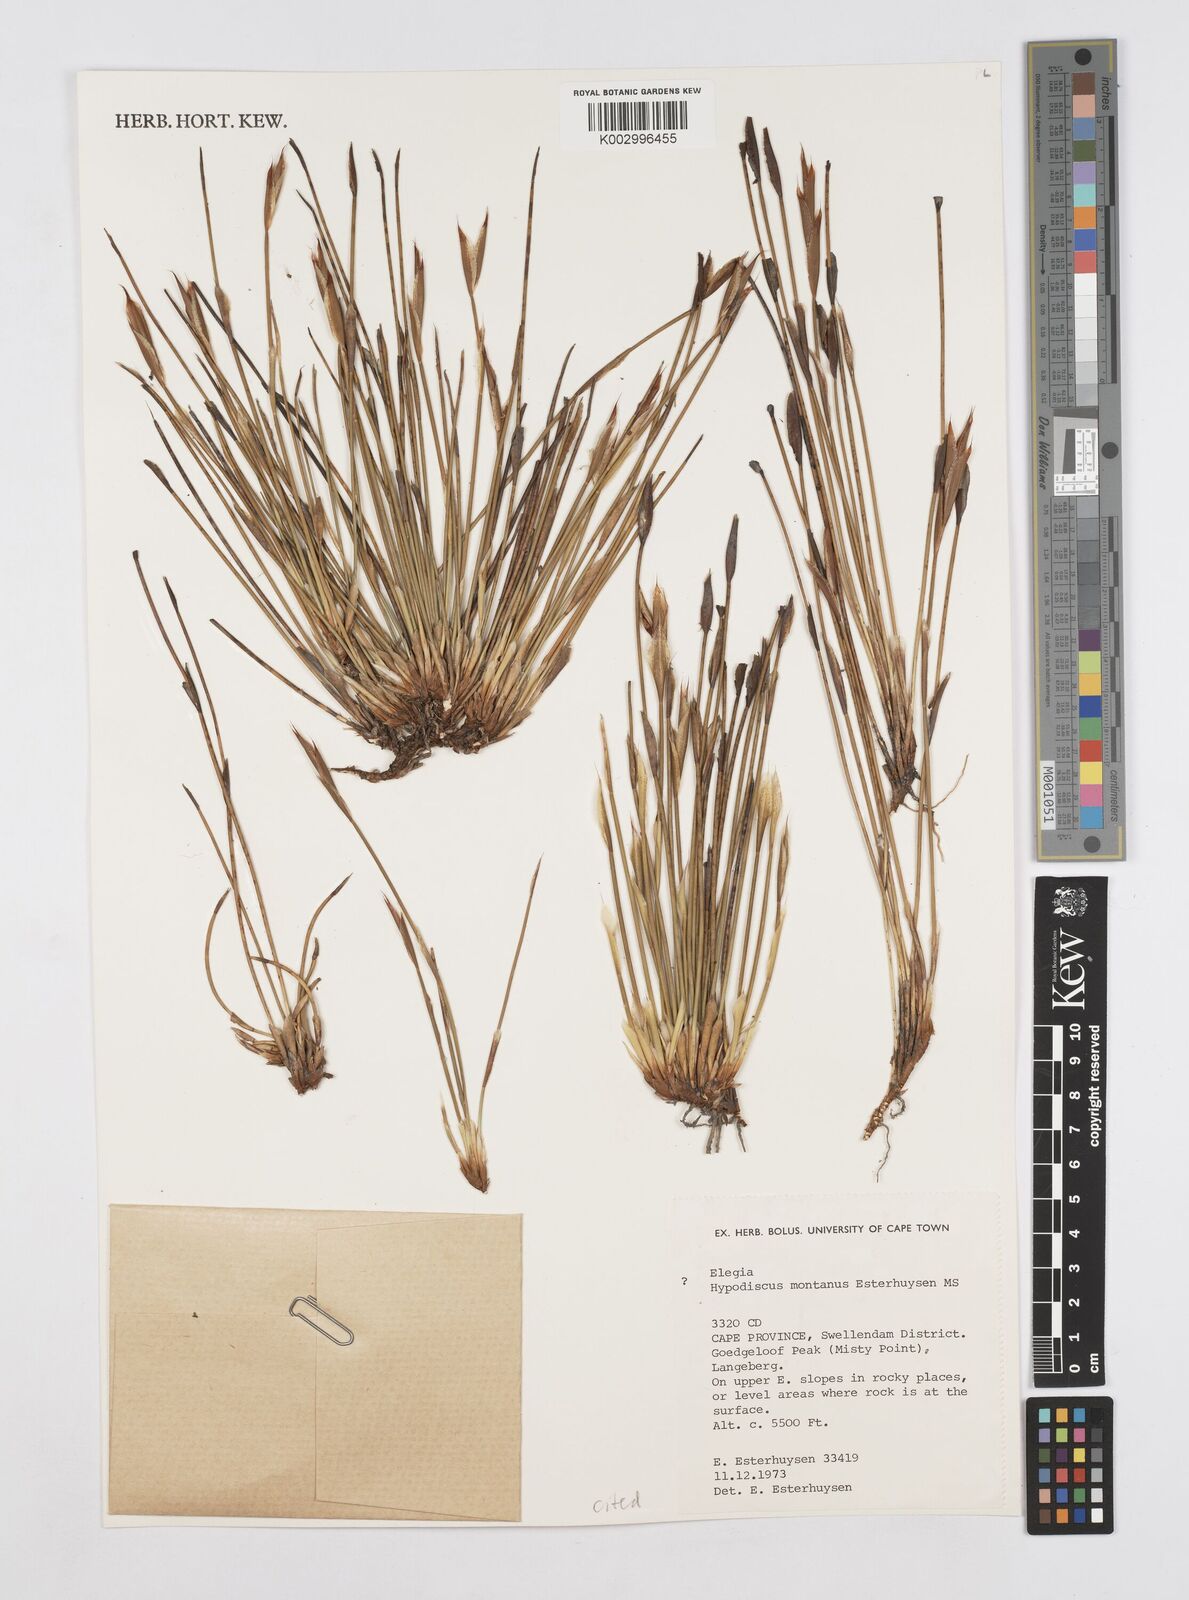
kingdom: Plantae
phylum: Tracheophyta
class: Liliopsida
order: Poales
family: Restionaceae
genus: Hypodiscus
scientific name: Hypodiscus montanus
